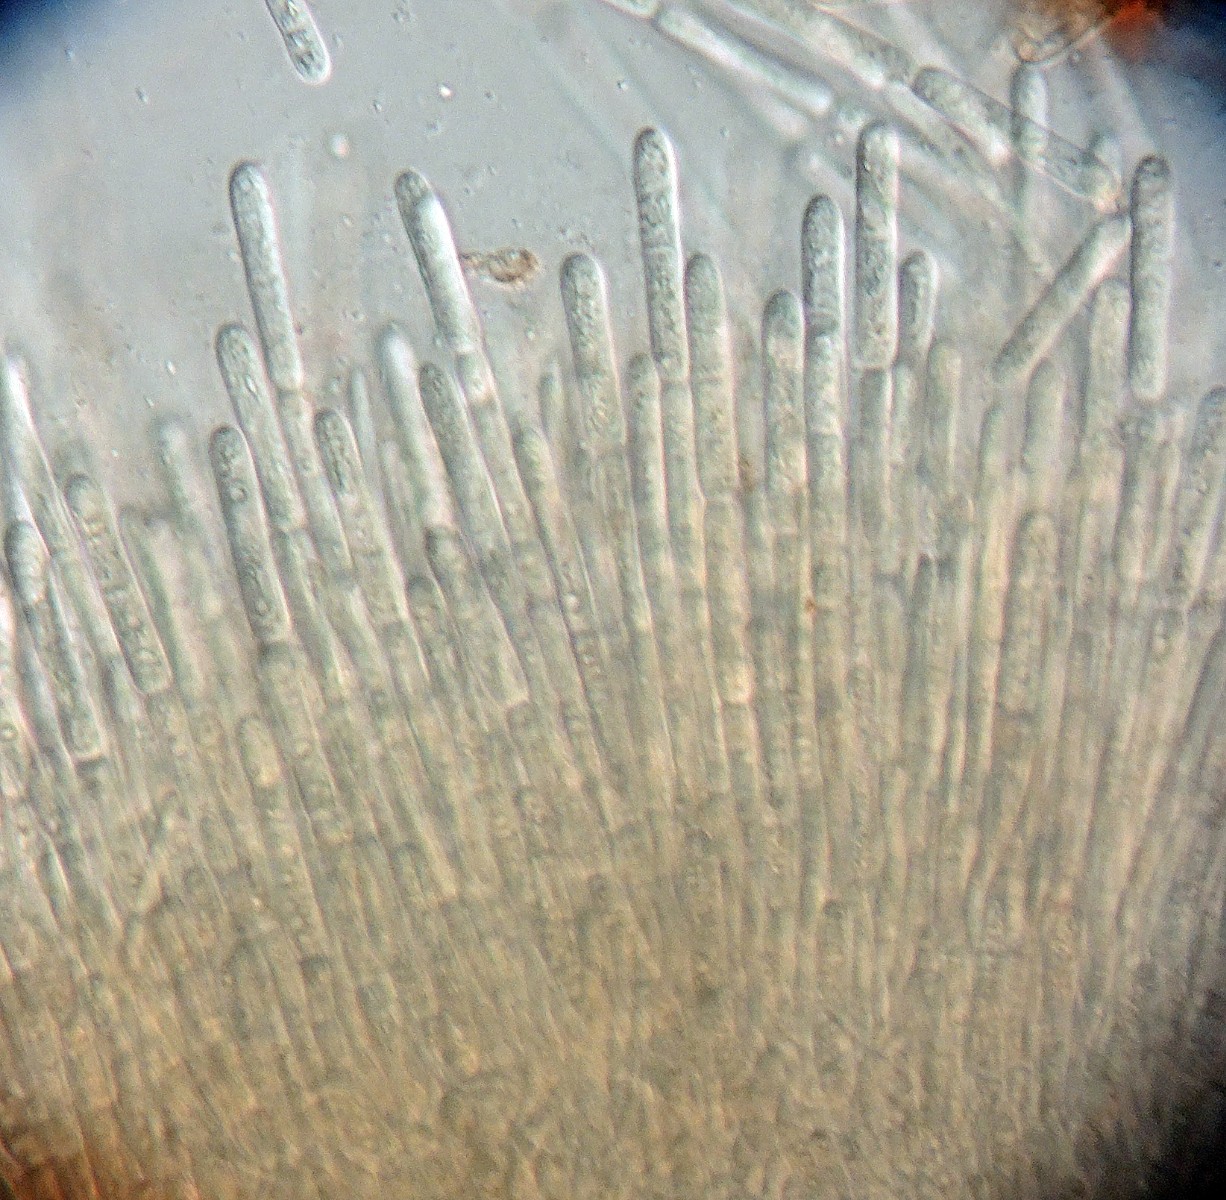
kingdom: Fungi
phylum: Ascomycota
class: Leotiomycetes
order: Helotiales
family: Helotiaceae
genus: Symphyosirinia
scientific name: Symphyosirinia angelicae
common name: angelik-frøskive
